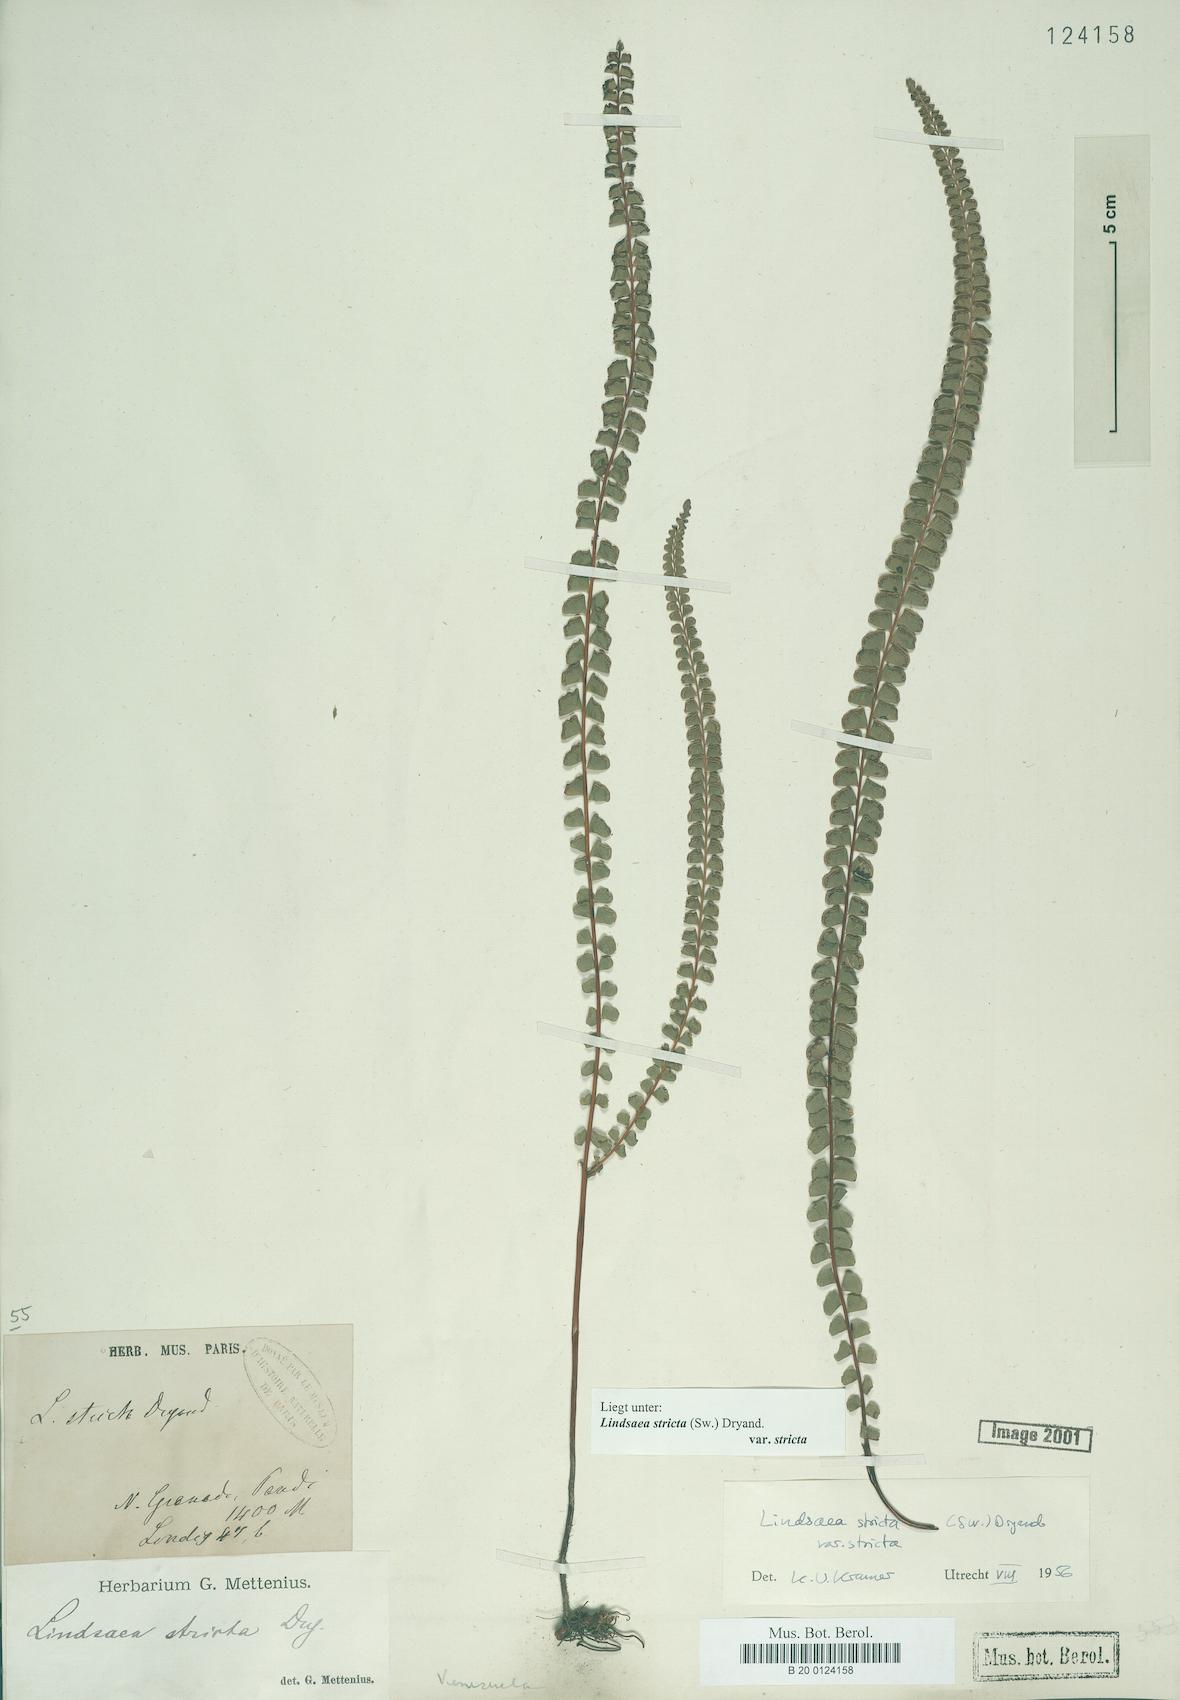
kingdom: Plantae
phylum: Tracheophyta
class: Polypodiopsida
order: Polypodiales
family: Lindsaeaceae
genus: Lindsaea
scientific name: Lindsaea stricta
